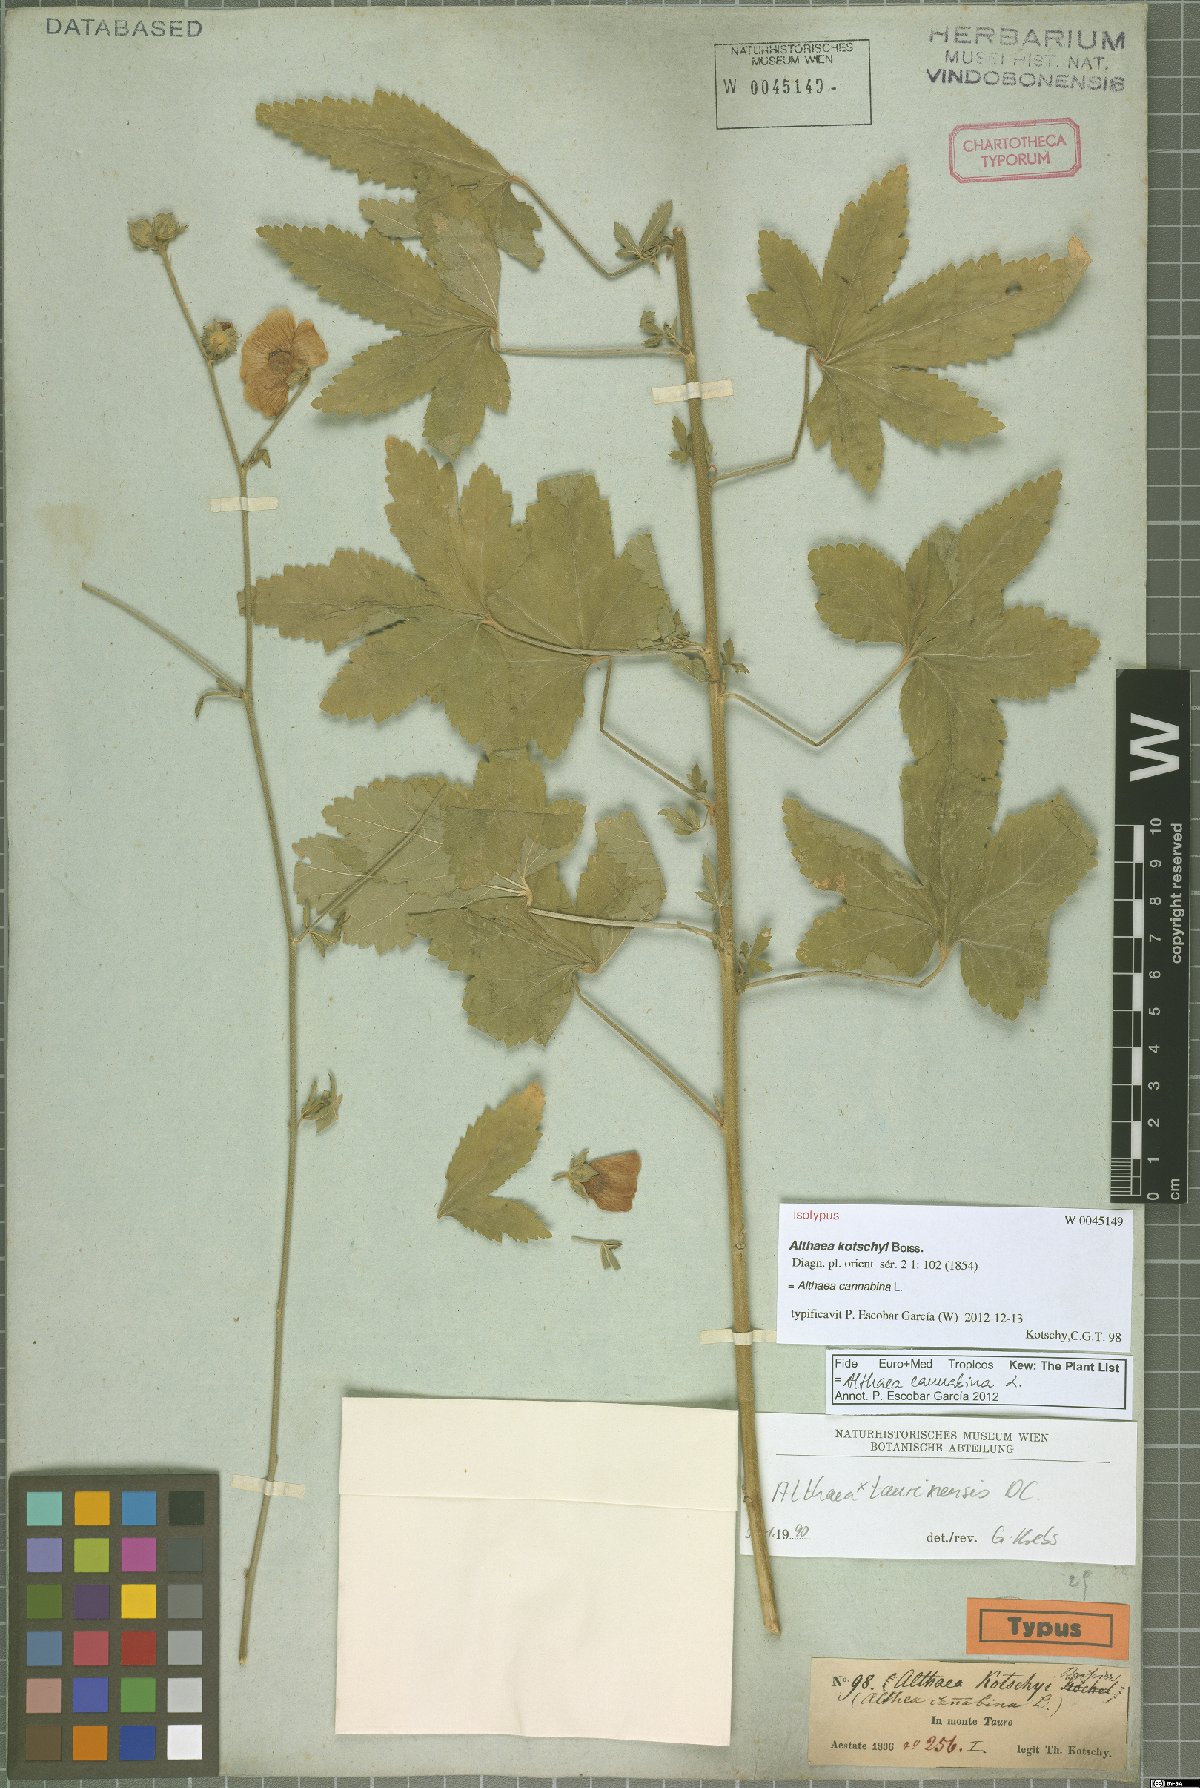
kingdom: Plantae
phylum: Tracheophyta
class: Magnoliopsida
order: Malvales
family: Malvaceae
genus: Althaea
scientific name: Althaea cannabina
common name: Palm-leaf marshmallow
